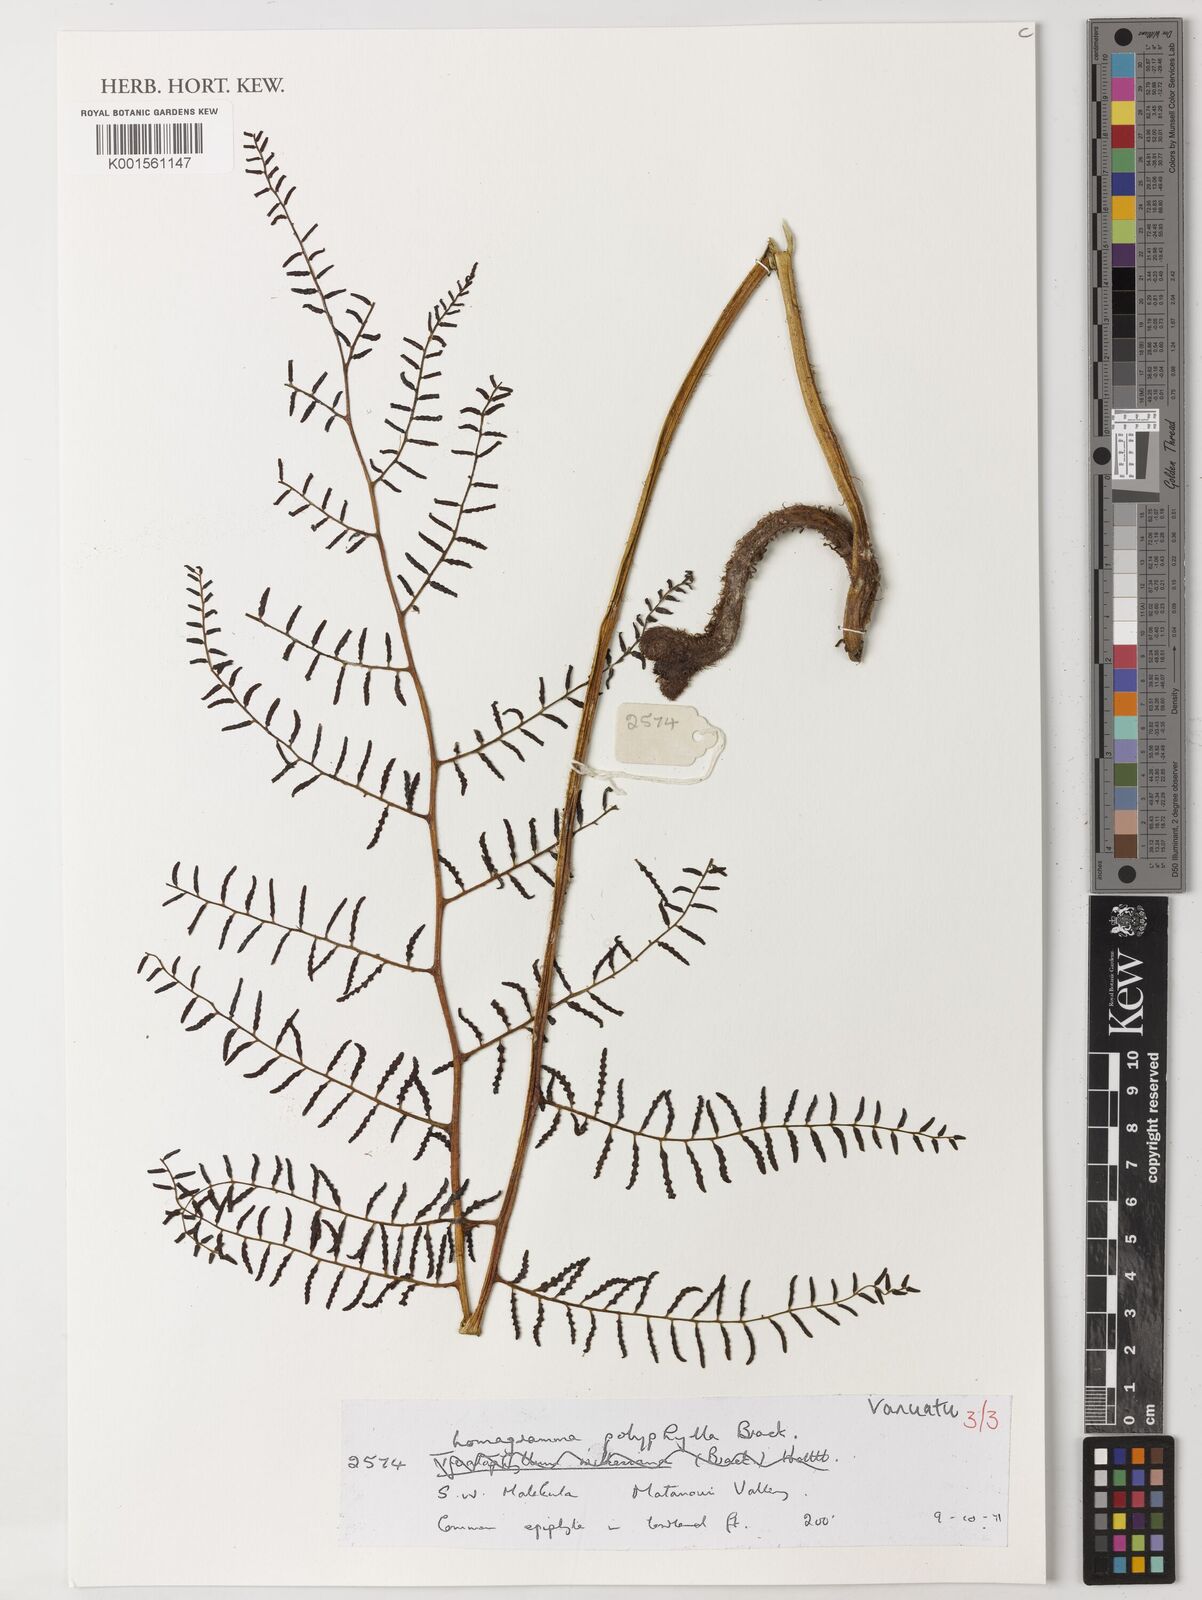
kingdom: Plantae
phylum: Tracheophyta
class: Polypodiopsida
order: Polypodiales
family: Dryopteridaceae
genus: Lomagramma
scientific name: Lomagramma polyphylla
